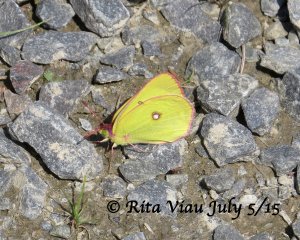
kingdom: Animalia
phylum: Arthropoda
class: Insecta
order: Lepidoptera
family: Pieridae
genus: Colias
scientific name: Colias interior
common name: Pink-edged Sulphur
